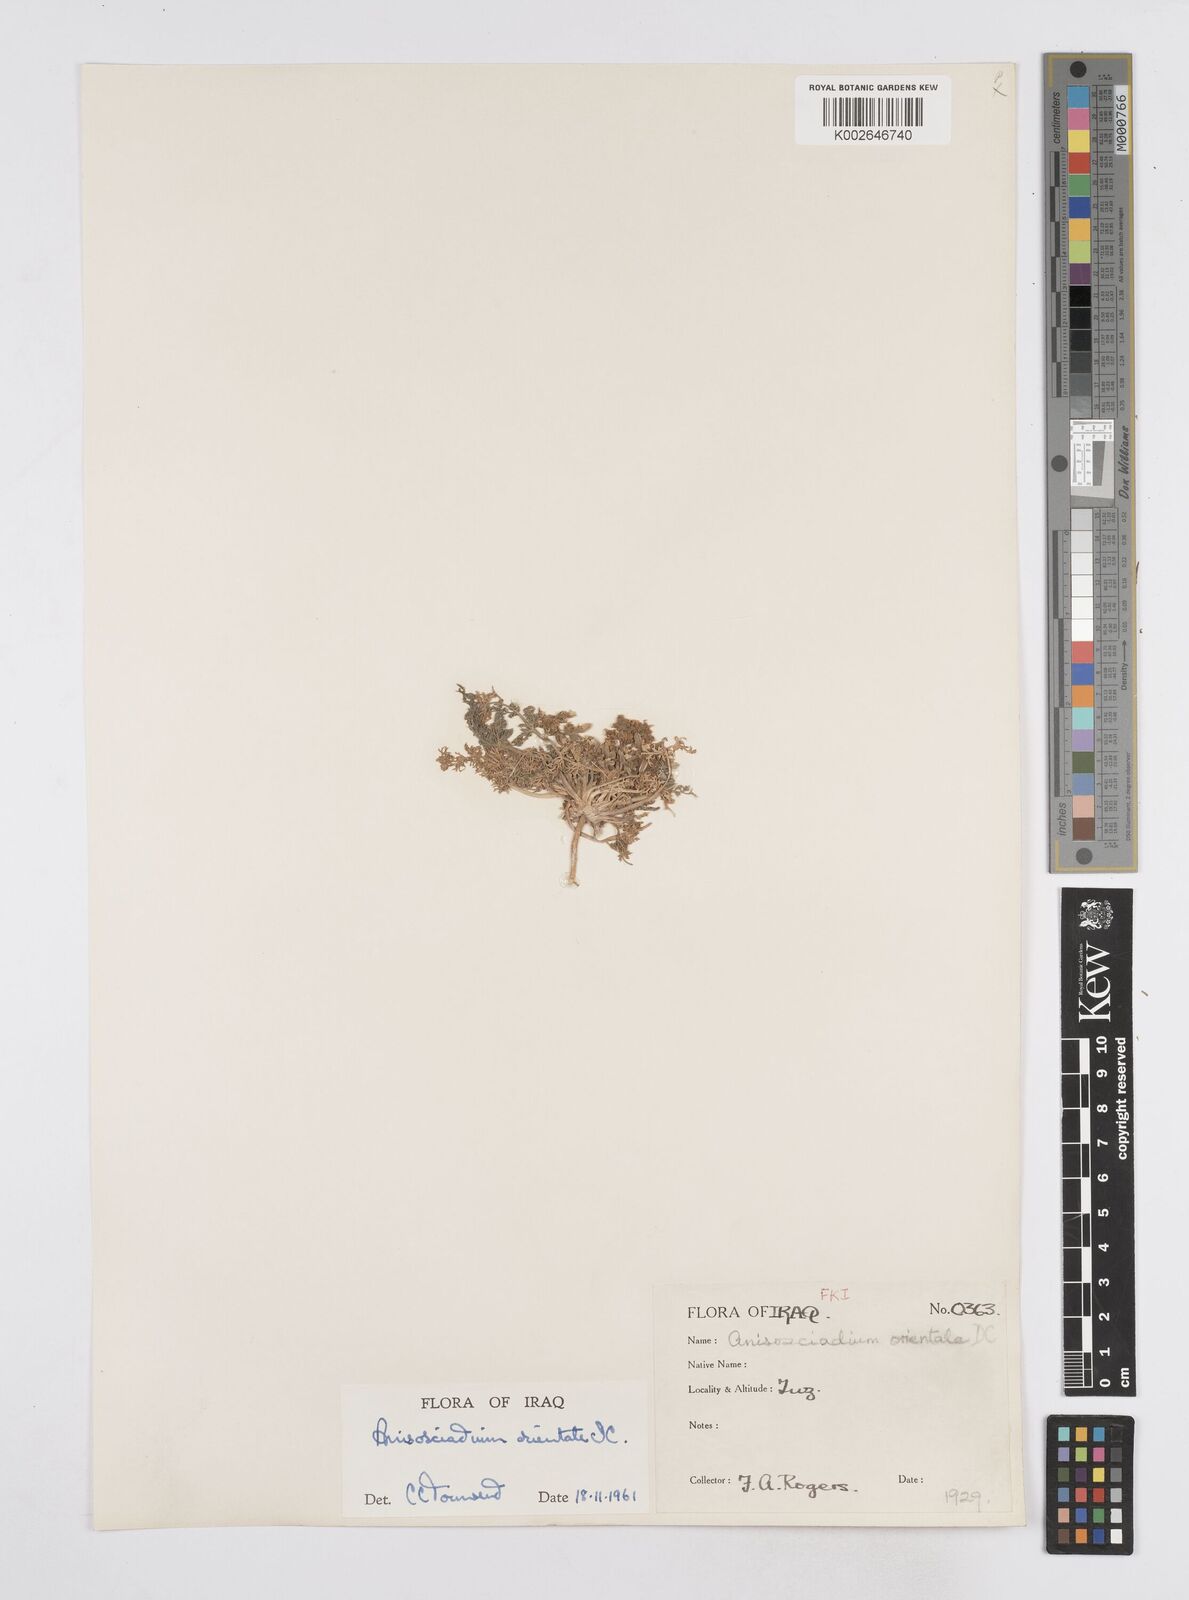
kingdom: Plantae
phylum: Tracheophyta
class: Magnoliopsida
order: Apiales
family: Apiaceae
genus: Anisosciadium
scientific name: Anisosciadium orientale
